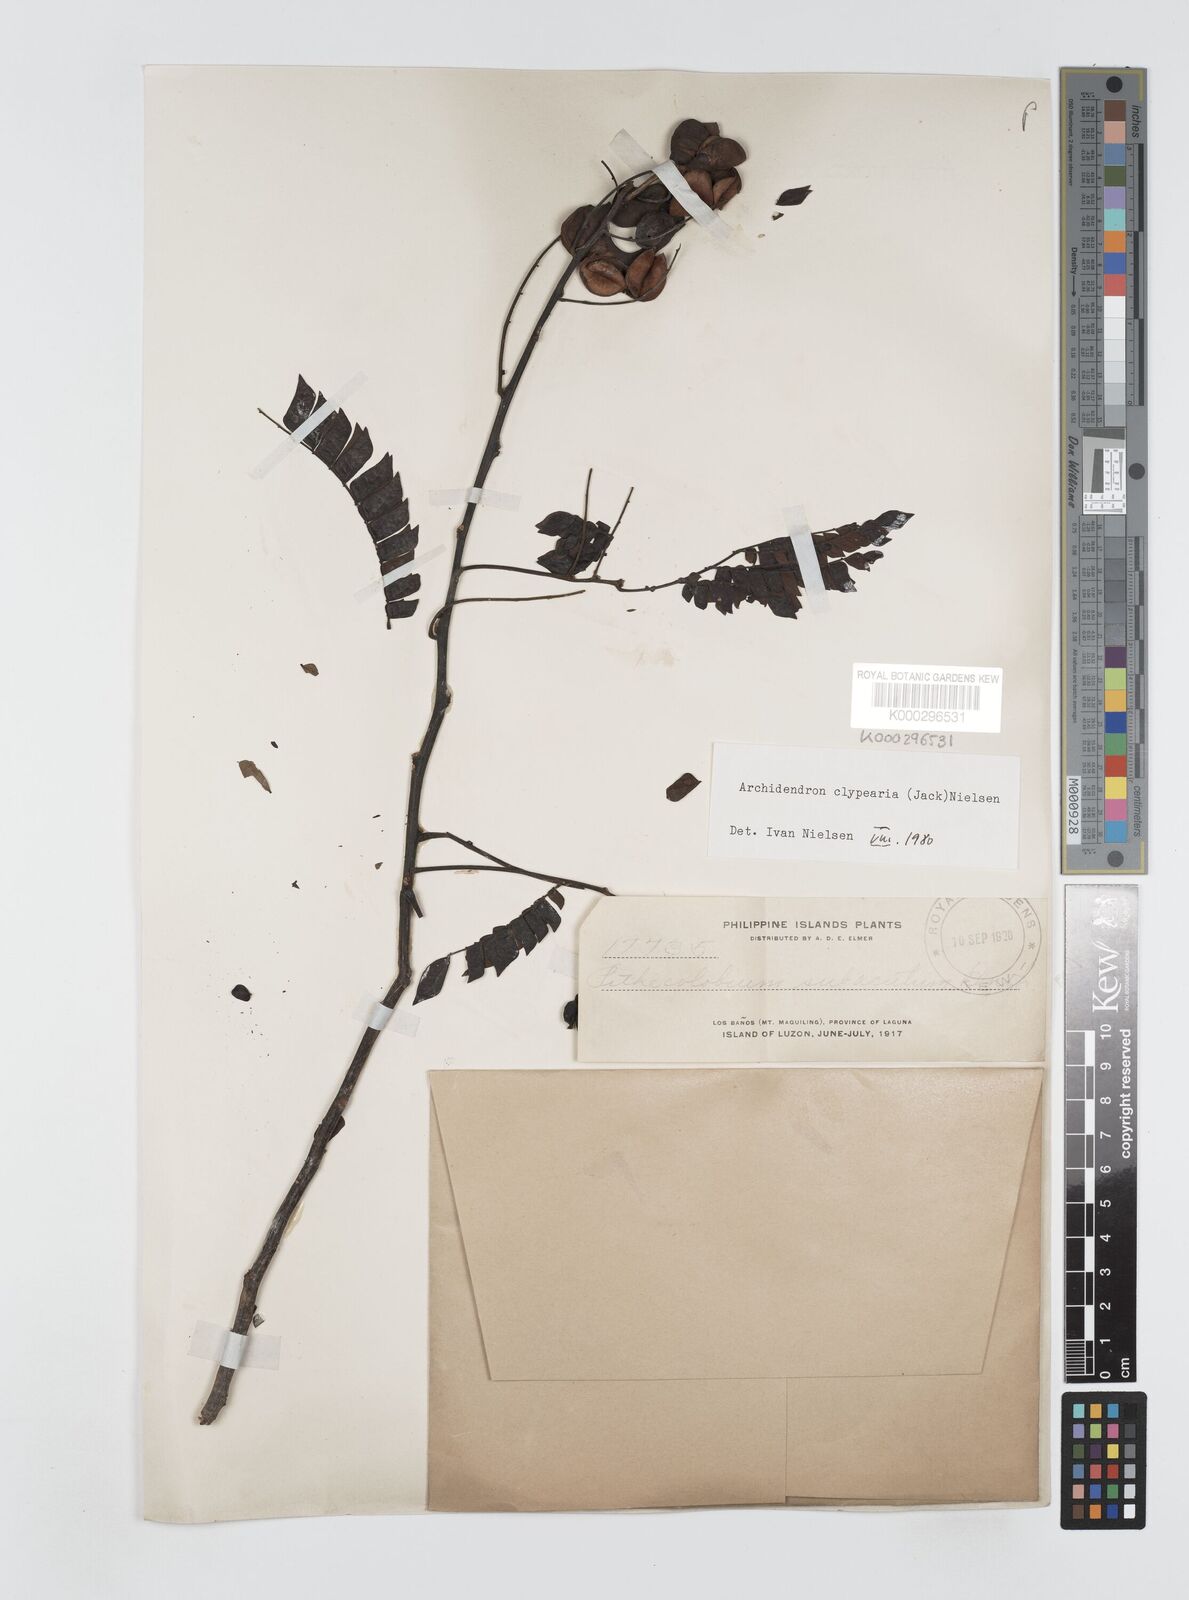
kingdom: Plantae
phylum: Tracheophyta
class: Magnoliopsida
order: Fabales
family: Fabaceae
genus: Archidendron
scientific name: Archidendron clypearia
